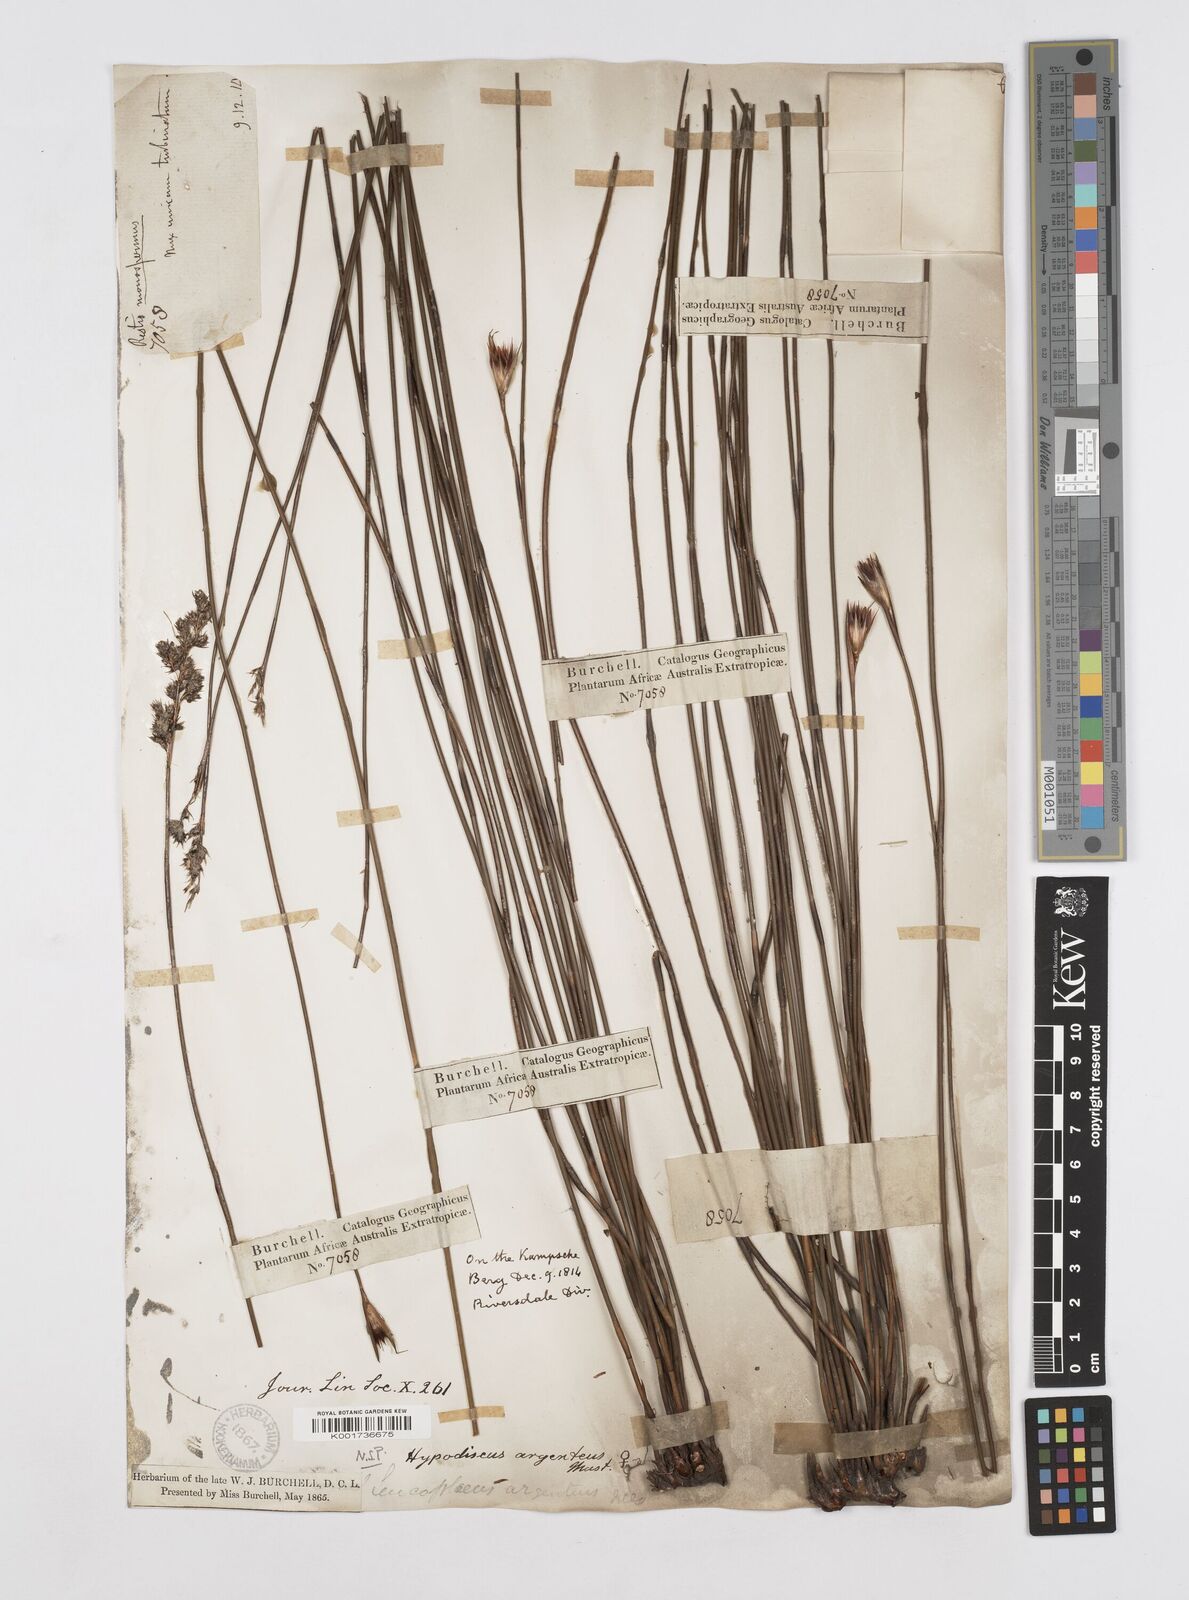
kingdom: Plantae
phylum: Tracheophyta
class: Liliopsida
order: Poales
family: Restionaceae
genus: Hypodiscus
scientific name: Hypodiscus argenteus
